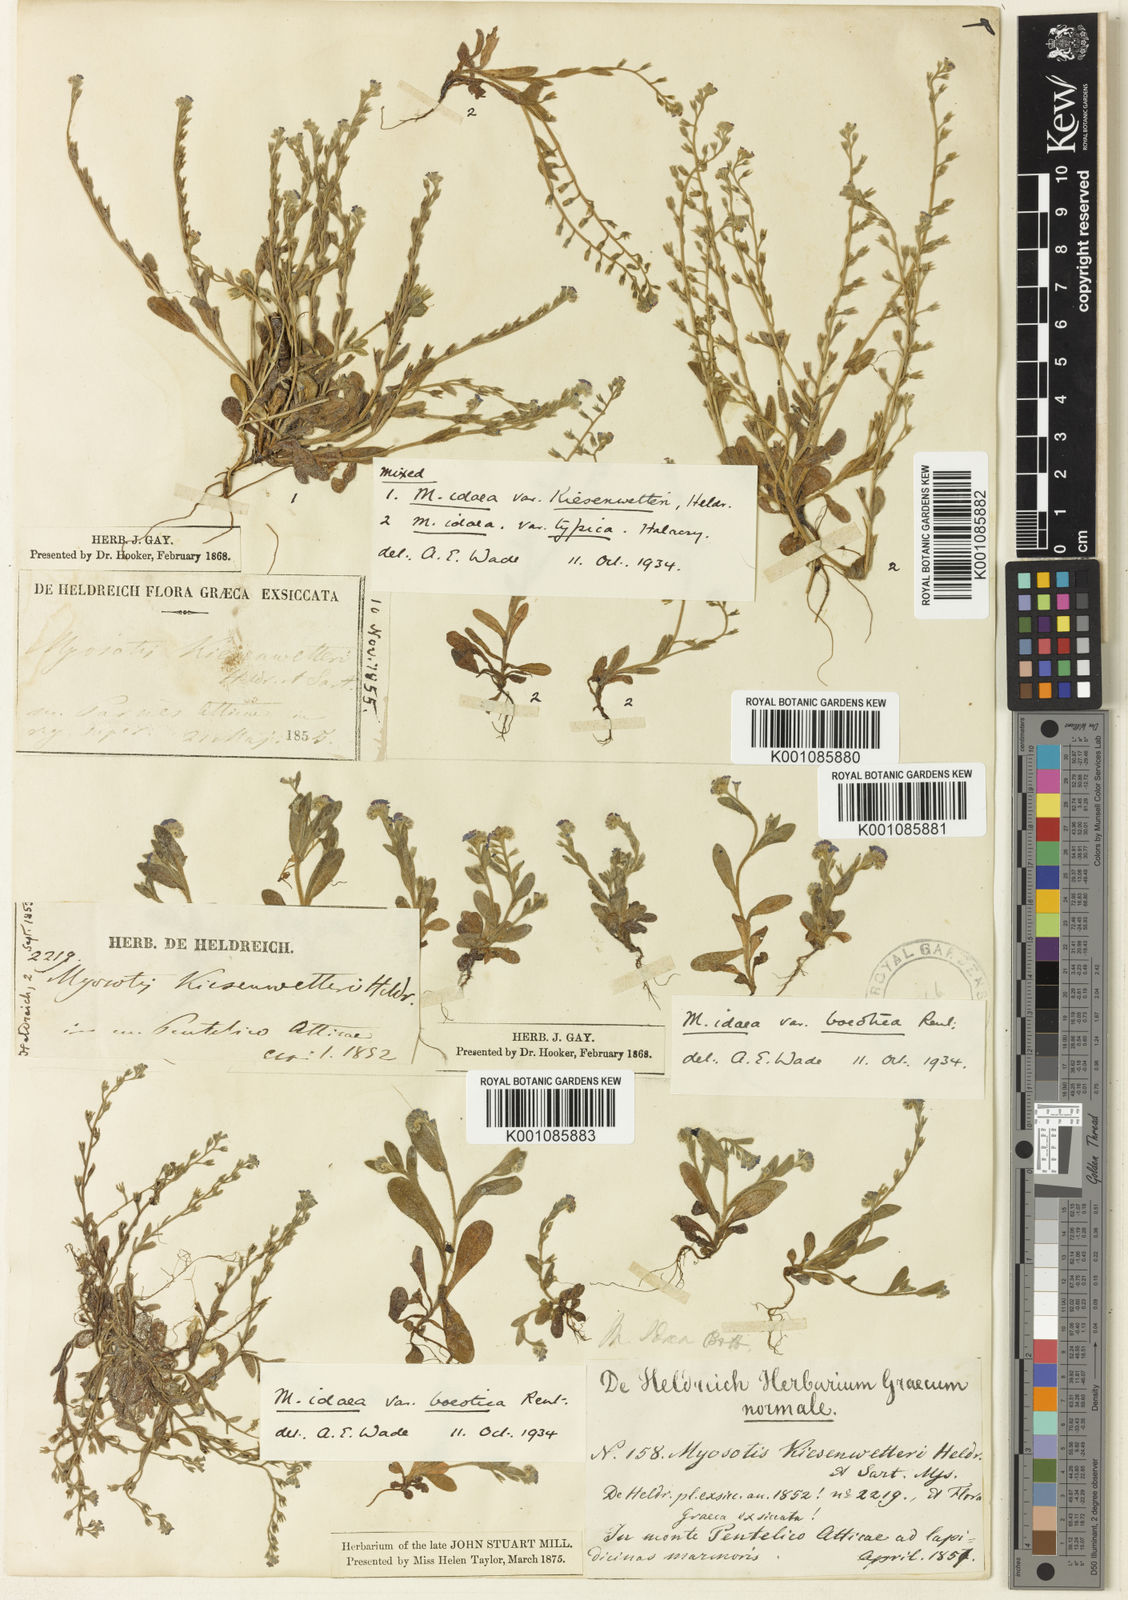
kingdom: Plantae
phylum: Tracheophyta
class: Magnoliopsida
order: Malvales
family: Malvaceae
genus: Abutilon
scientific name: Abutilon pannosum
